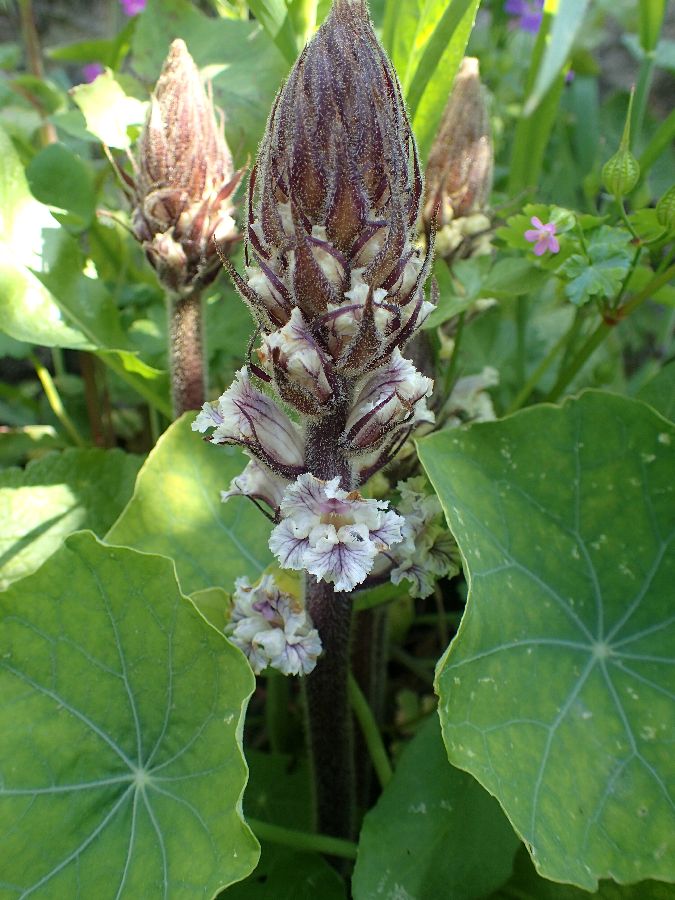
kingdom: Plantae
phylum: Tracheophyta
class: Magnoliopsida
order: Lamiales
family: Orobanchaceae
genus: Orobanche
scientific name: Orobanche crenata
